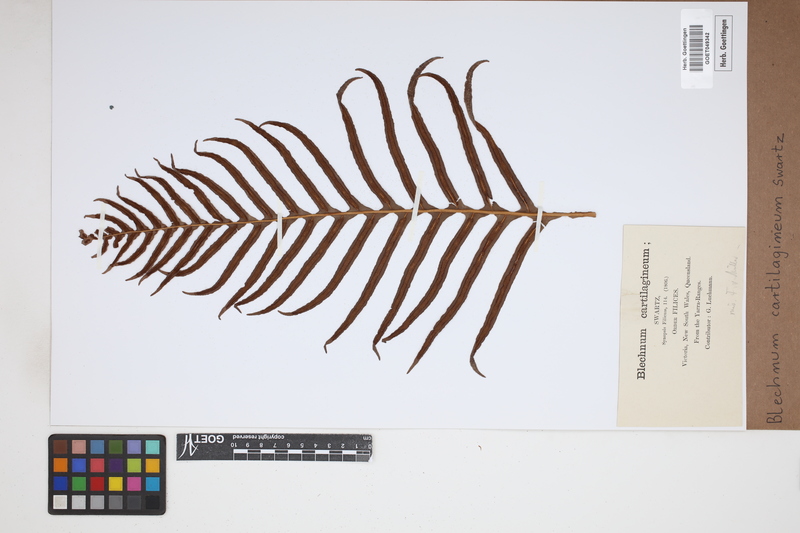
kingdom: Plantae
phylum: Tracheophyta
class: Polypodiopsida
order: Polypodiales
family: Blechnaceae
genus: Oceaniopteris
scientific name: Oceaniopteris cartilaginea
